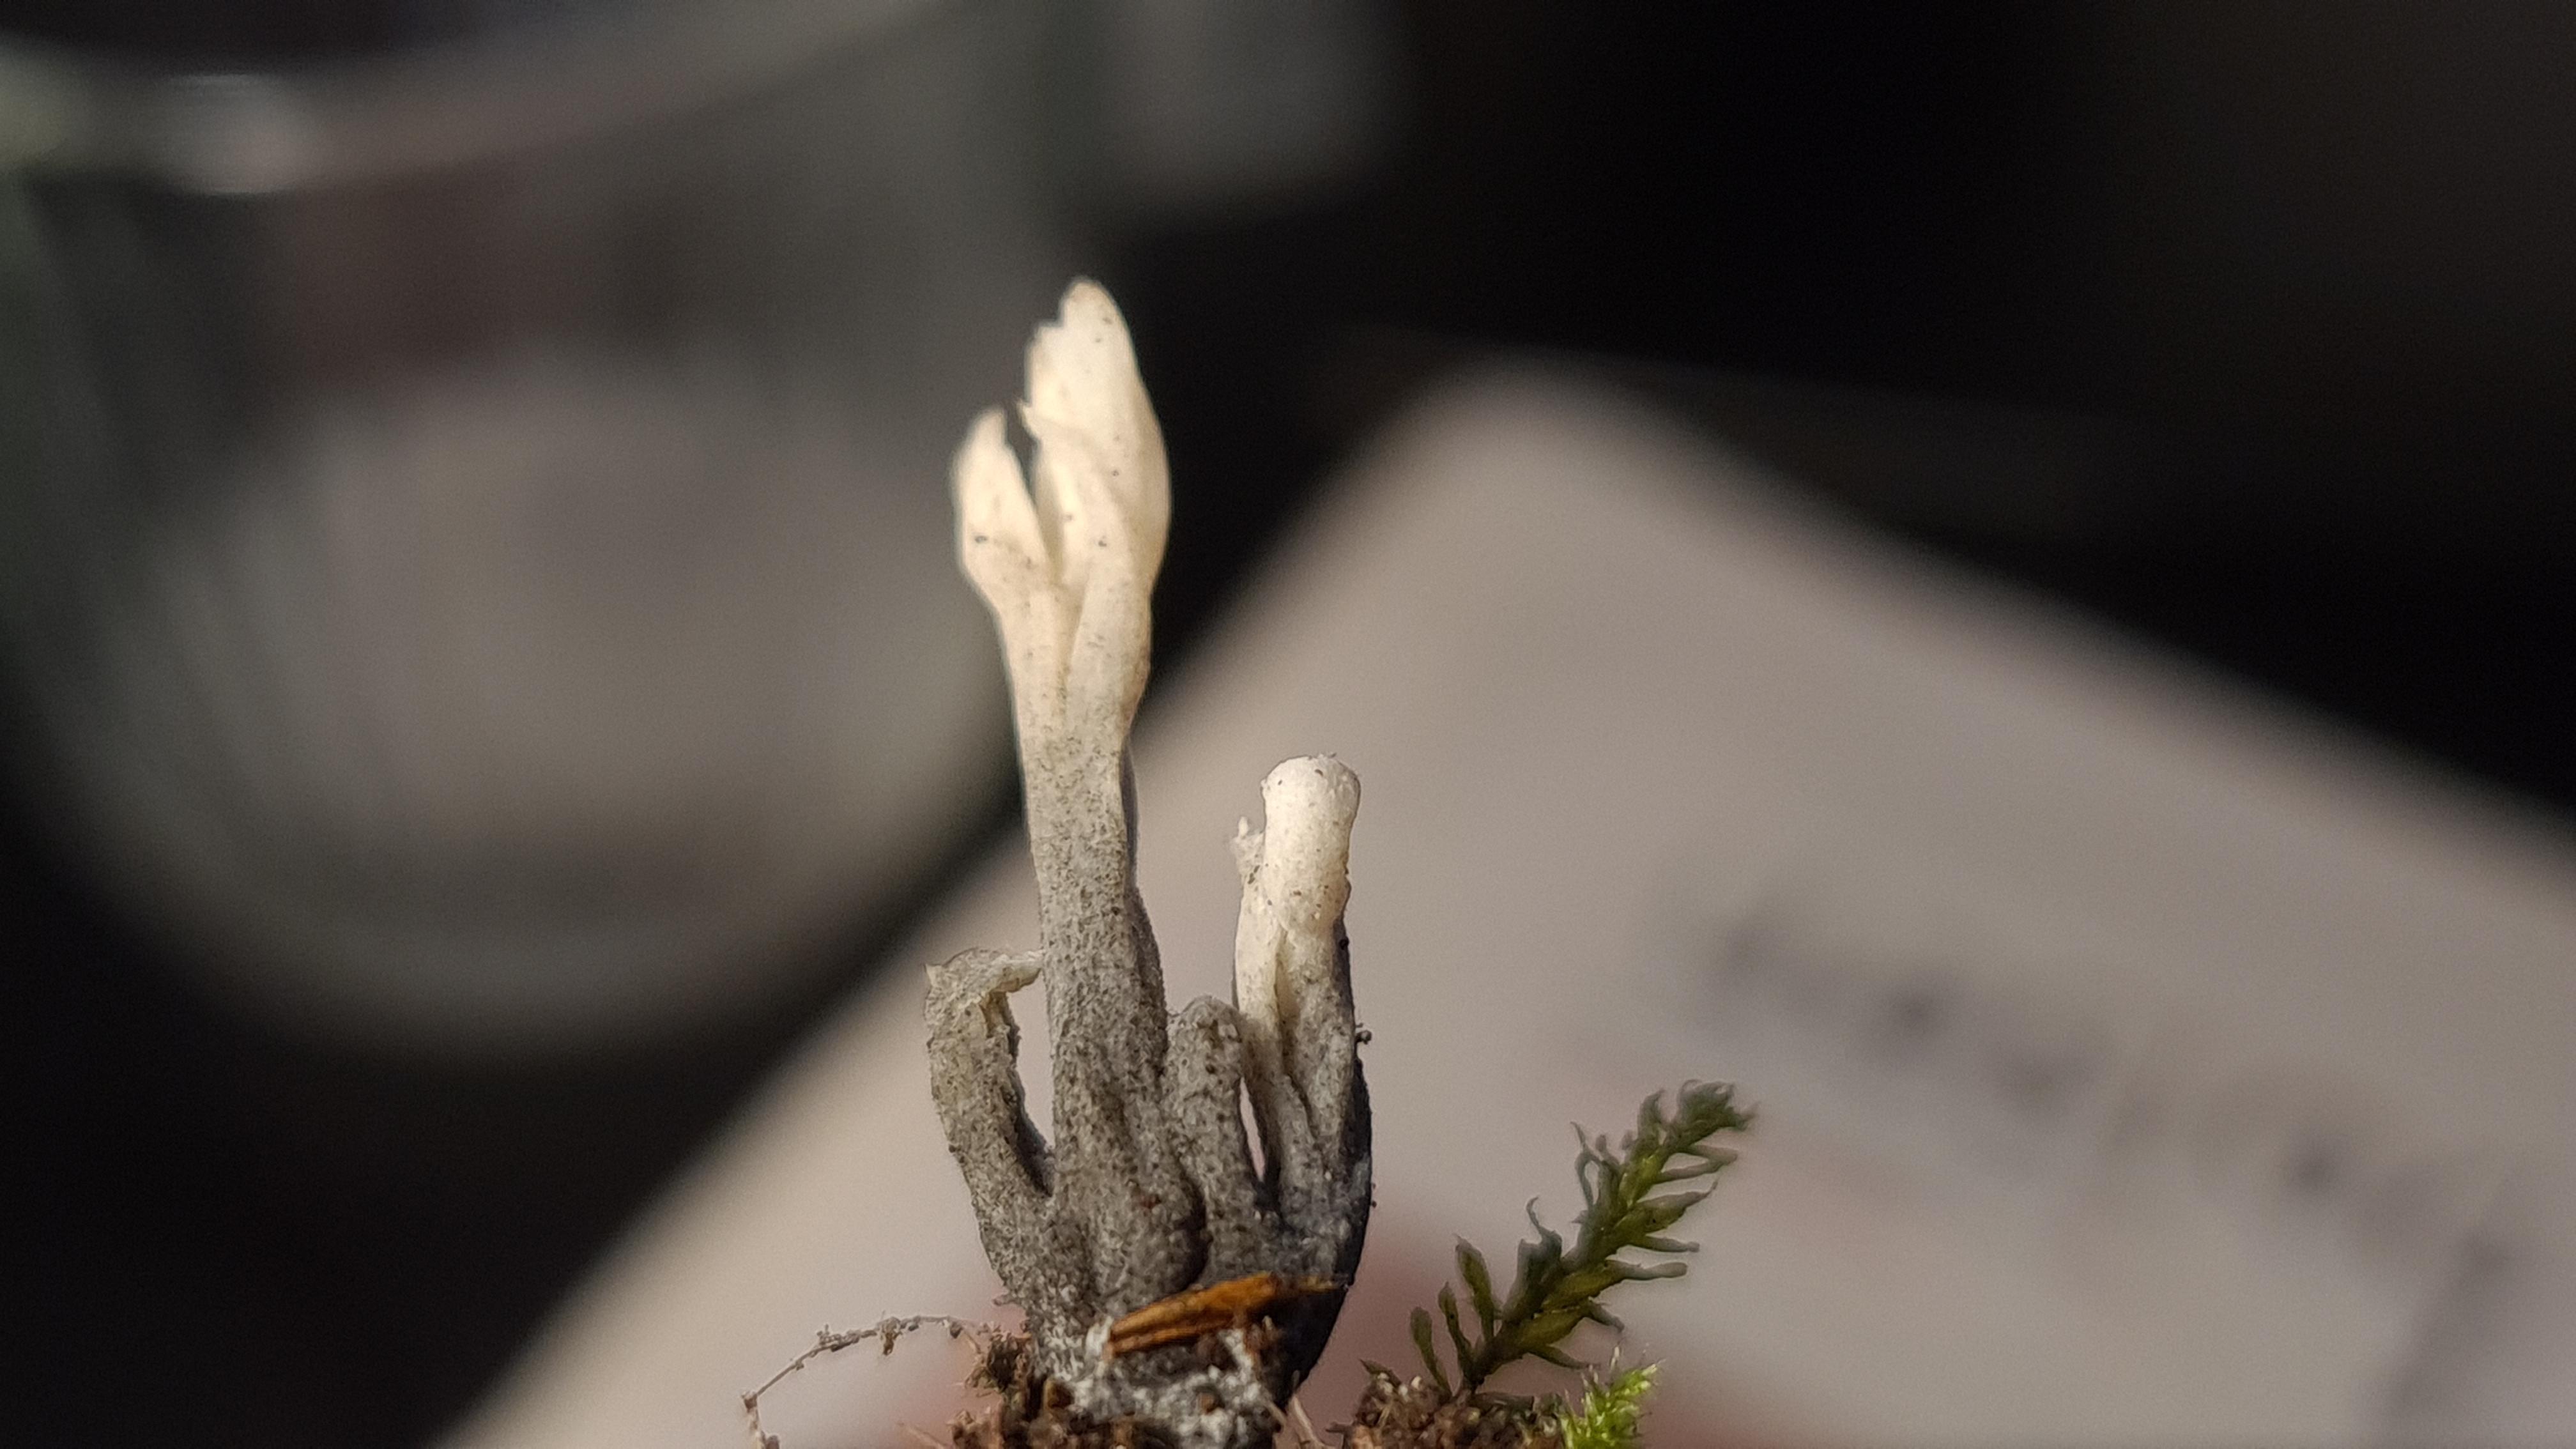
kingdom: Fungi
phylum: Ascomycota
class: Sordariomycetes
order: Sordariales
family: Helminthosphaeriaceae
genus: Helminthosphaeria
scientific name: Helminthosphaeria clavariarum
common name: trold-svampesnyltekerne
